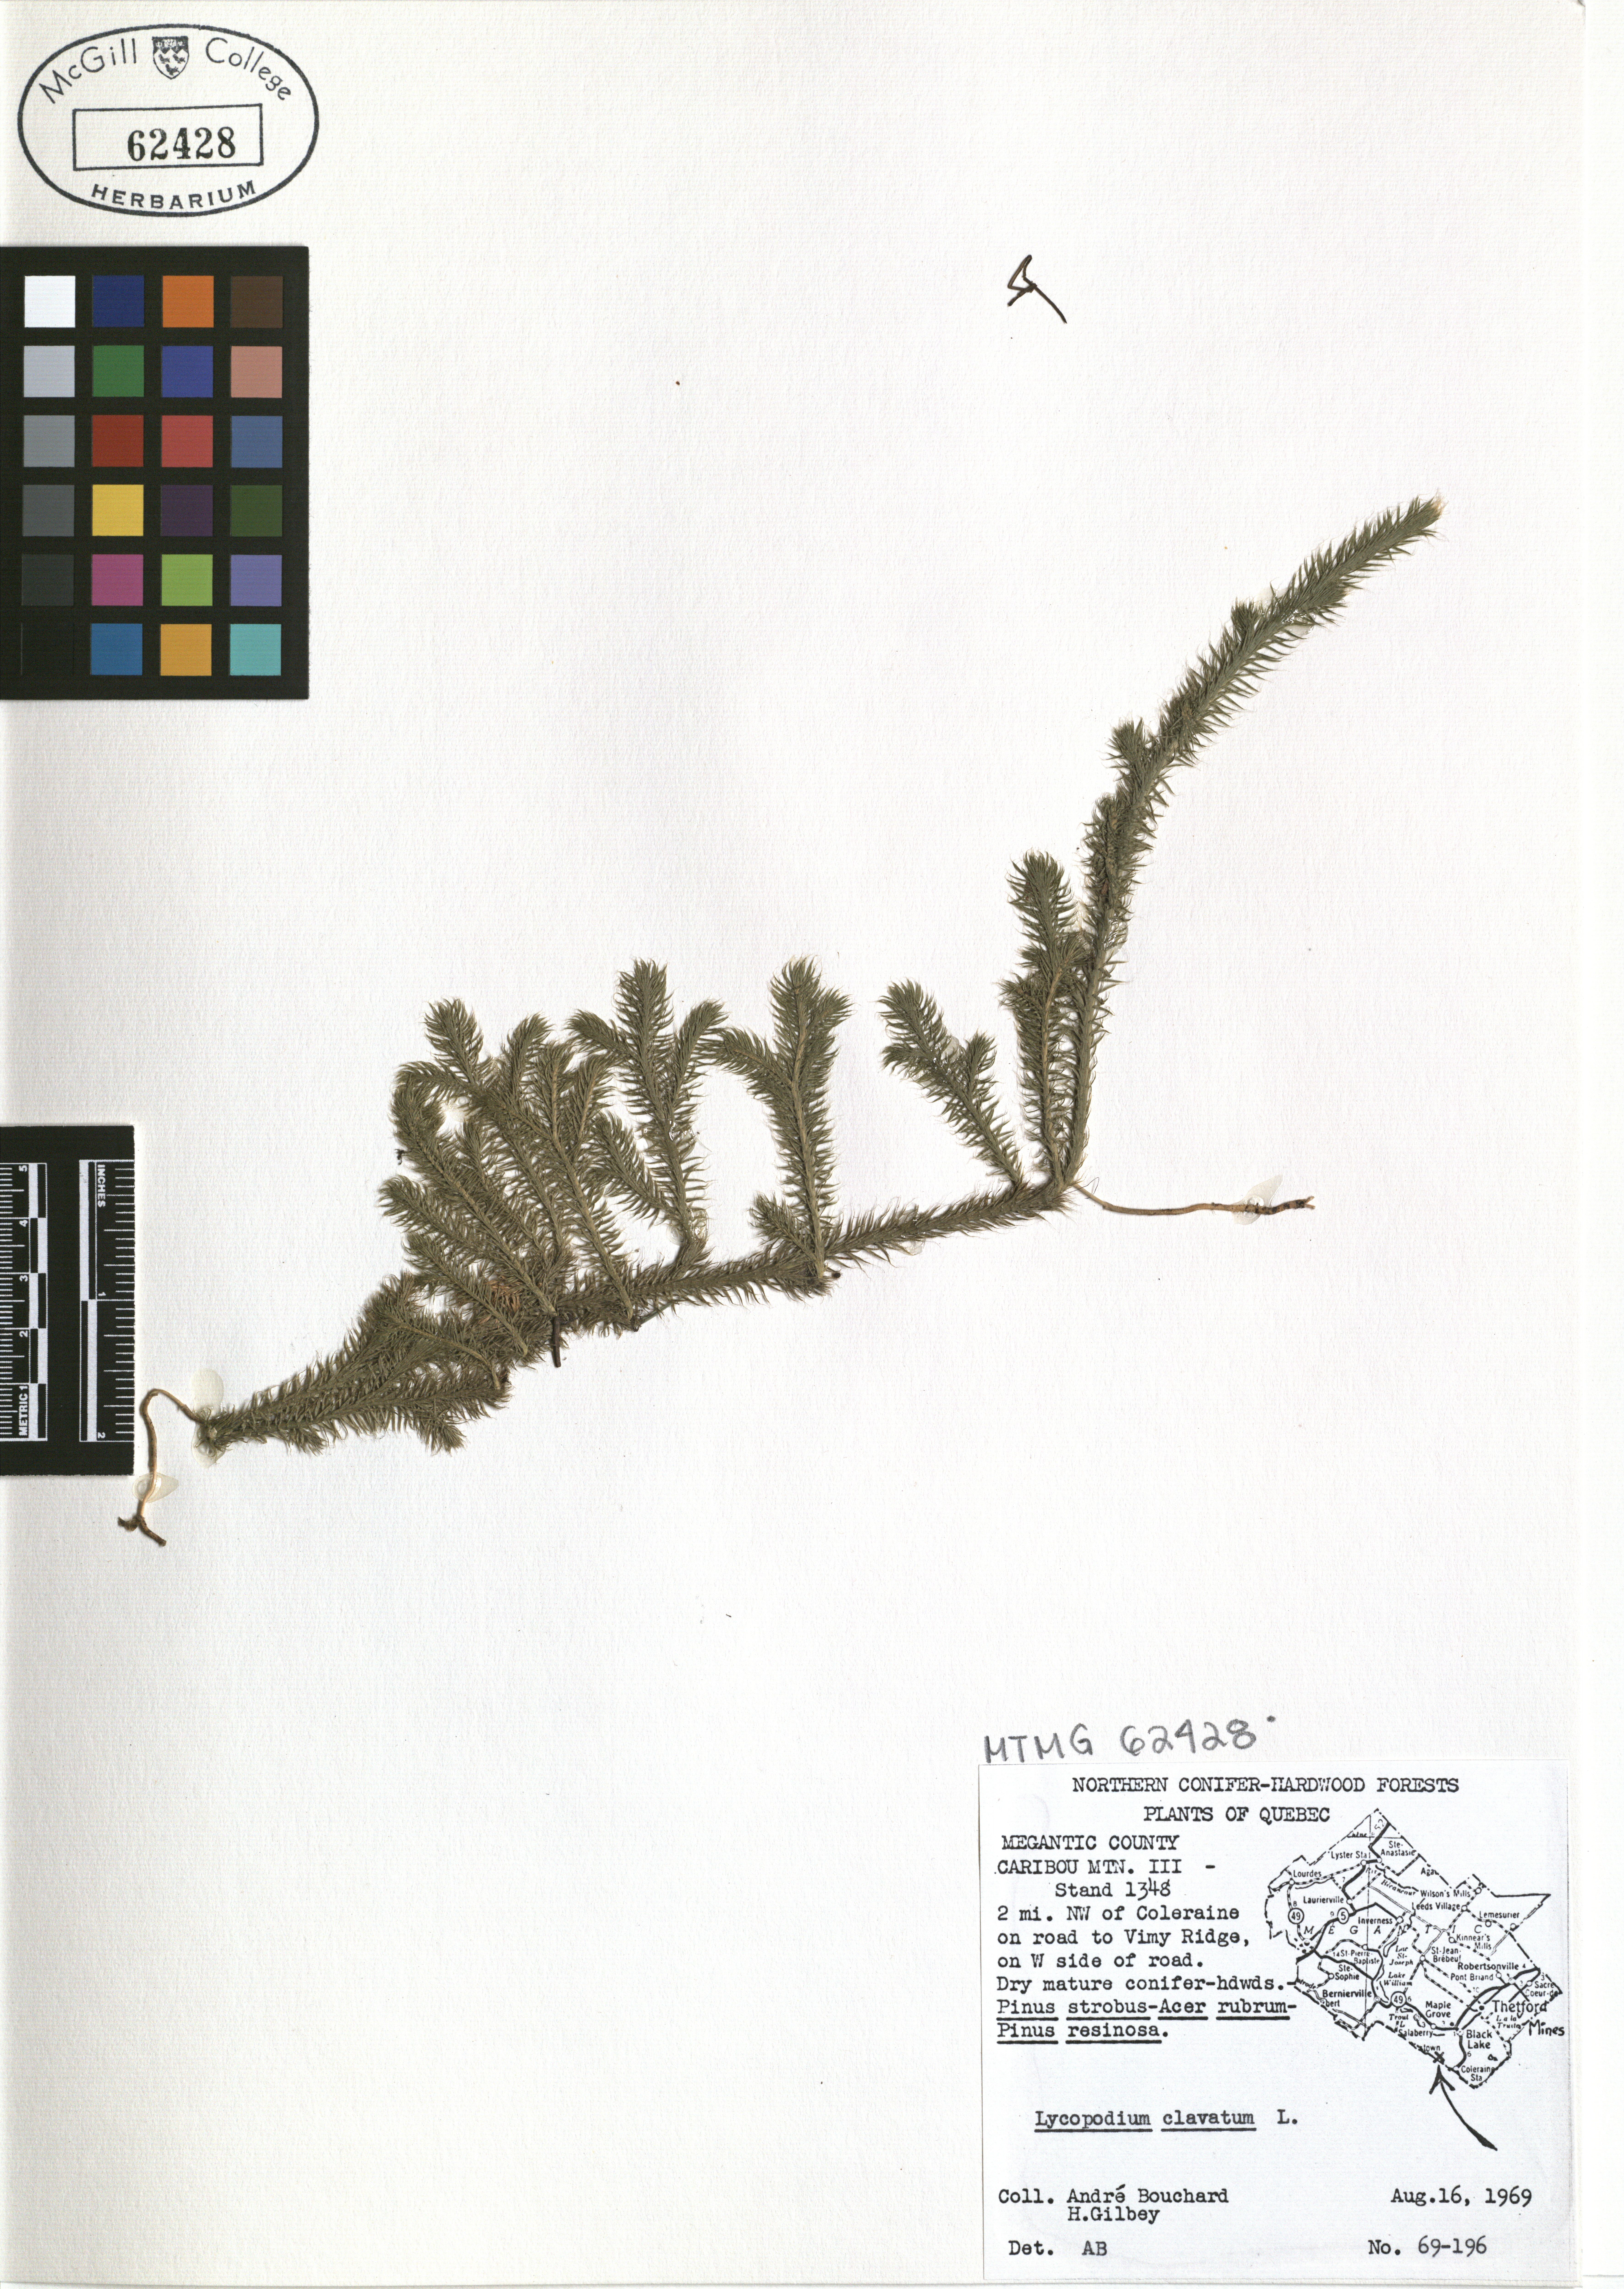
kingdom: Plantae
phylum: Tracheophyta
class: Lycopodiopsida
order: Lycopodiales
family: Lycopodiaceae
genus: Lycopodium
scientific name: Lycopodium clavatum
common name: Stag's-horn clubmoss
